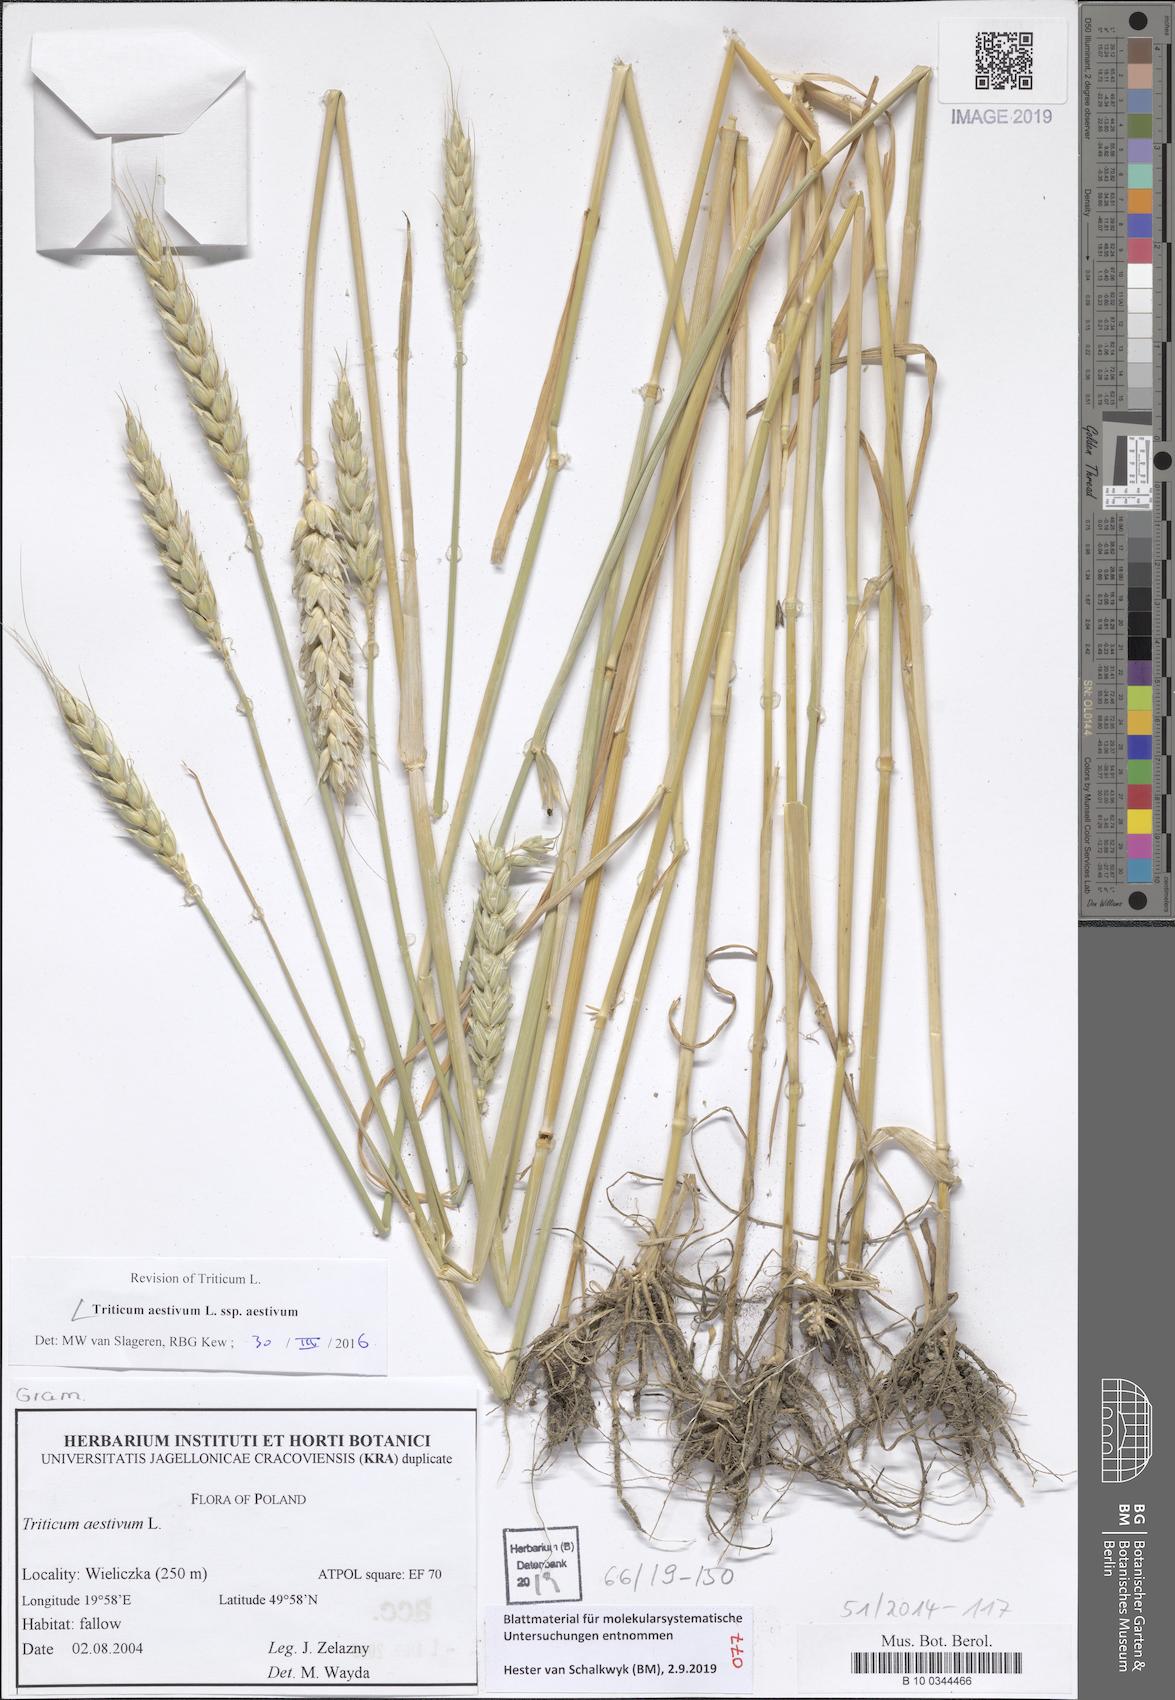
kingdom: Plantae
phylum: Tracheophyta
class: Liliopsida
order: Poales
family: Poaceae
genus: Triticum
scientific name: Triticum aestivum
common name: Common wheat
